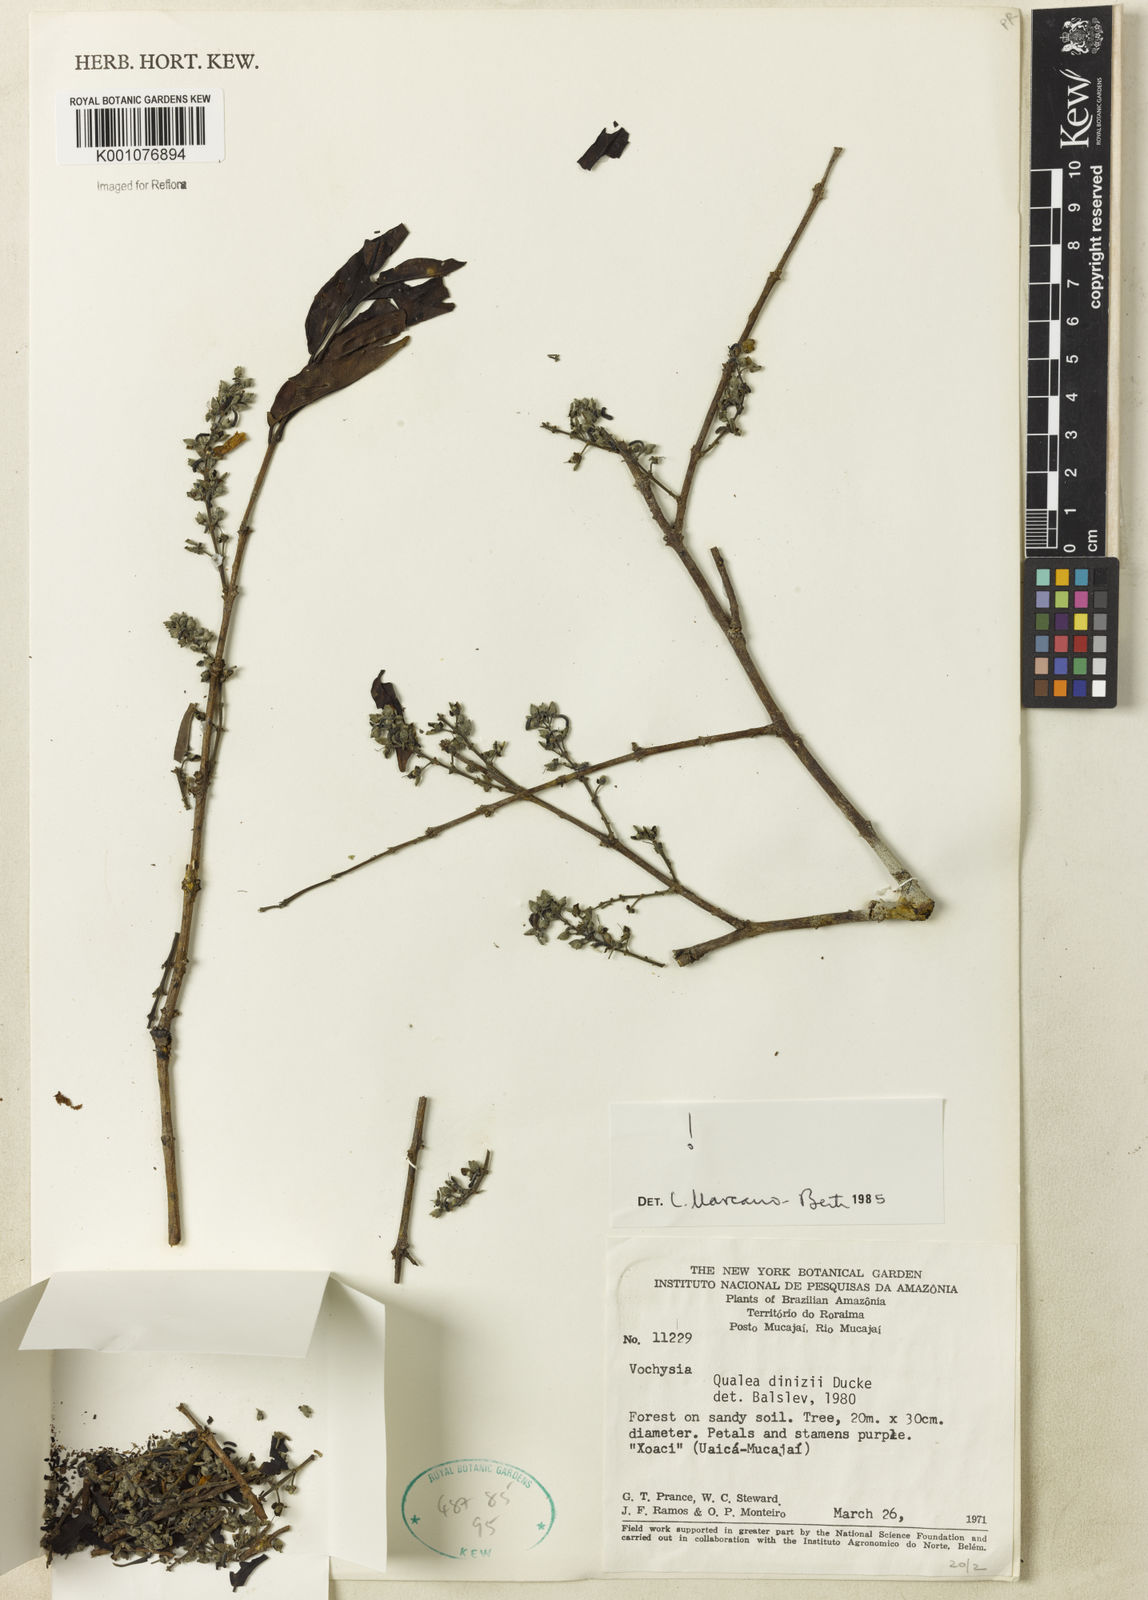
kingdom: Plantae
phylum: Tracheophyta
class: Magnoliopsida
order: Myrtales
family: Vochysiaceae
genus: Qualea
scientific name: Qualea dinizii
